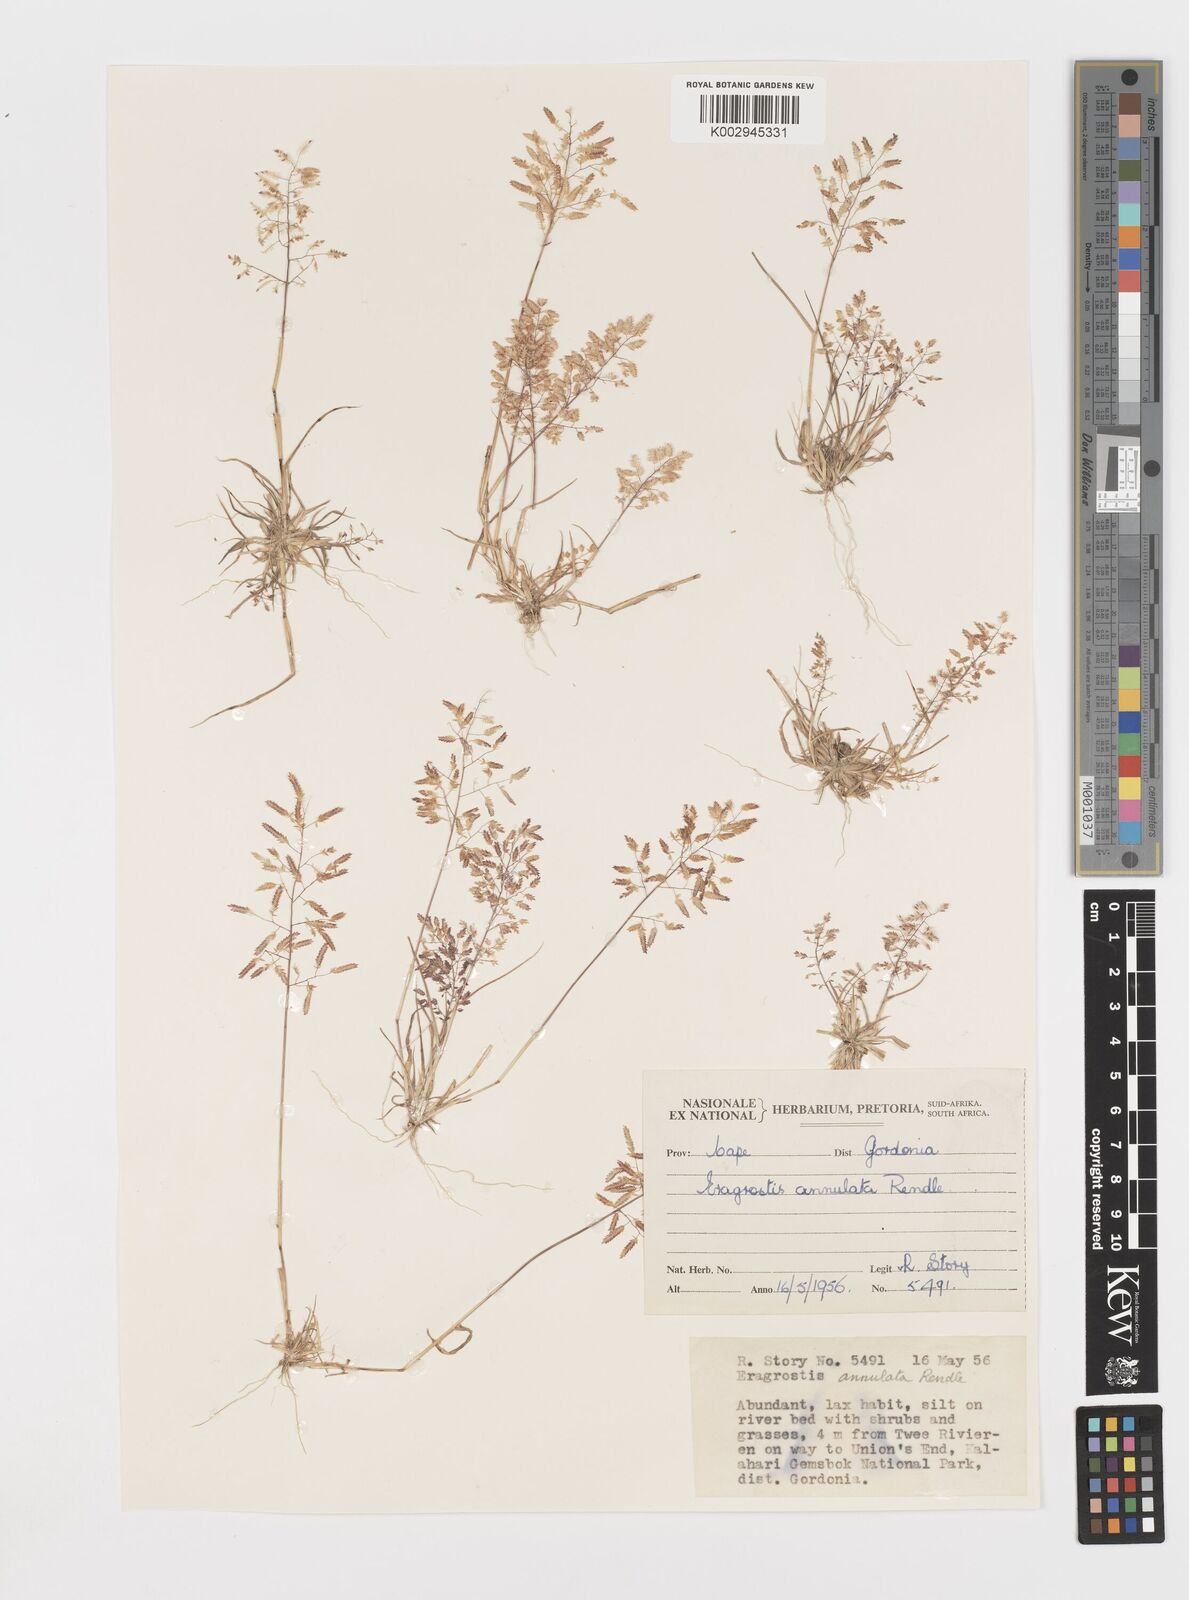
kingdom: Plantae
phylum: Tracheophyta
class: Liliopsida
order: Poales
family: Poaceae
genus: Eragrostis
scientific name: Eragrostis annulata
